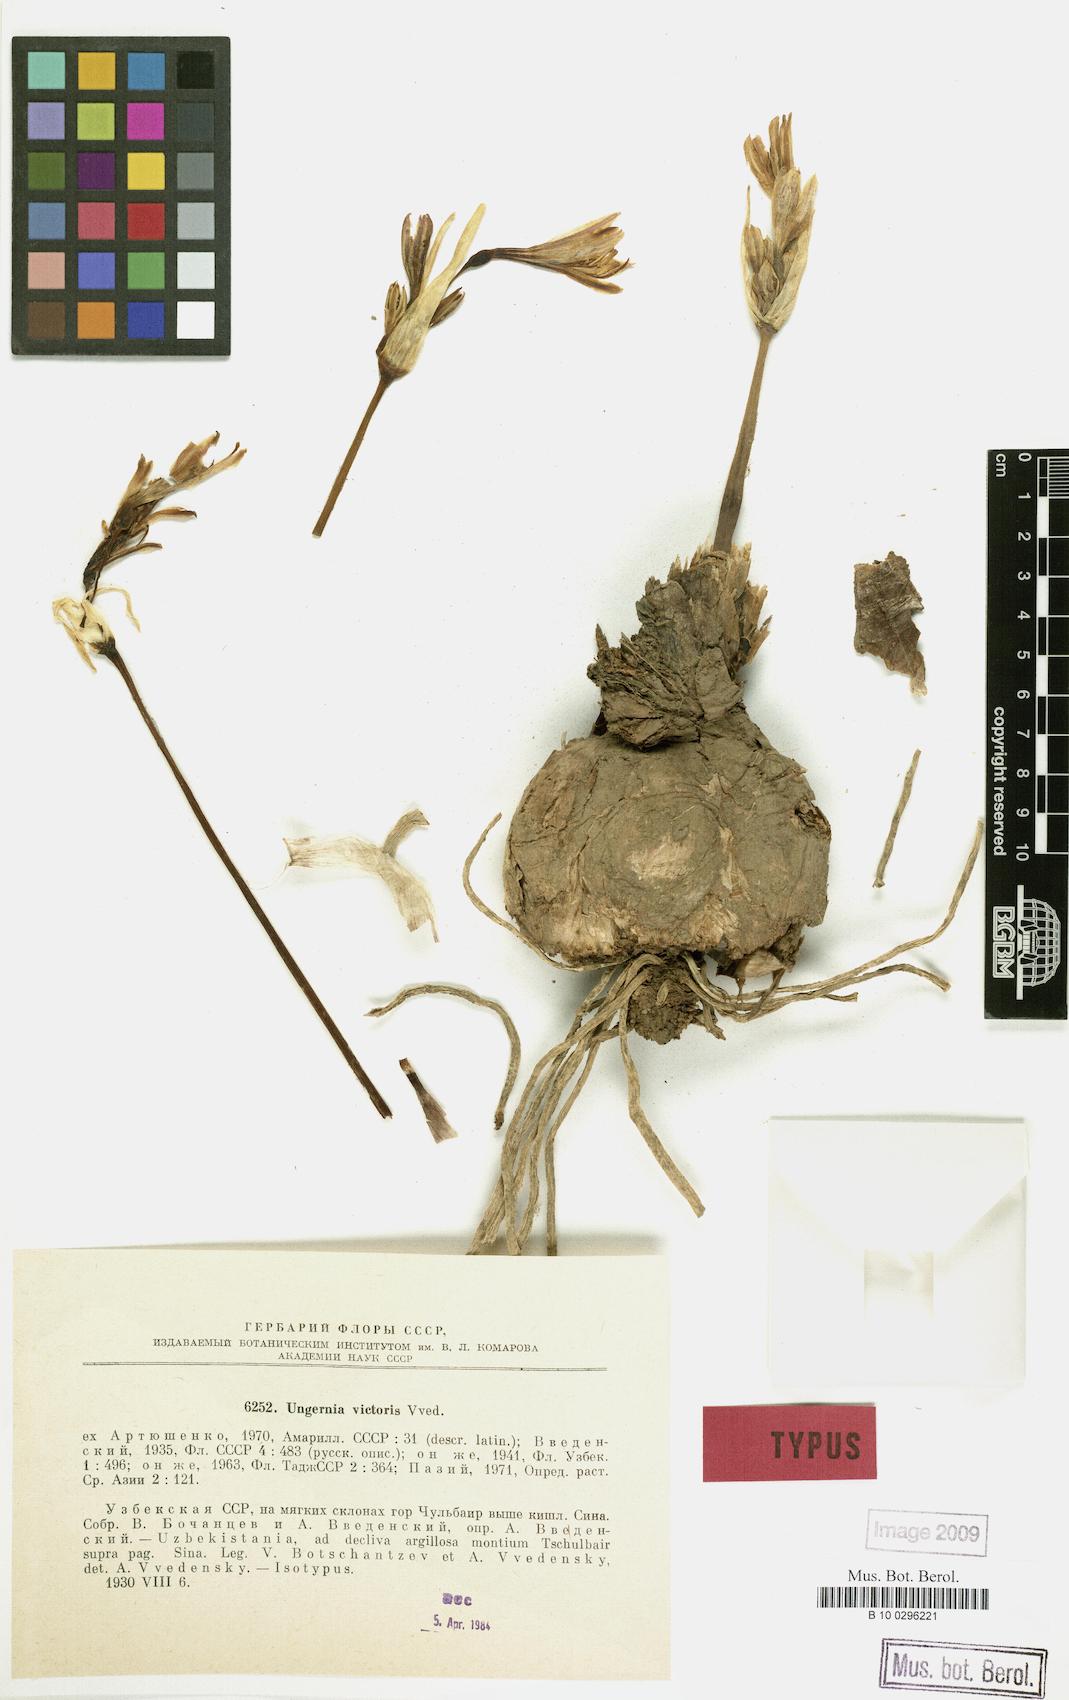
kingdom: Plantae
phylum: Tracheophyta
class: Liliopsida
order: Asparagales
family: Amaryllidaceae
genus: Ungernia
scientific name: Ungernia victoris
